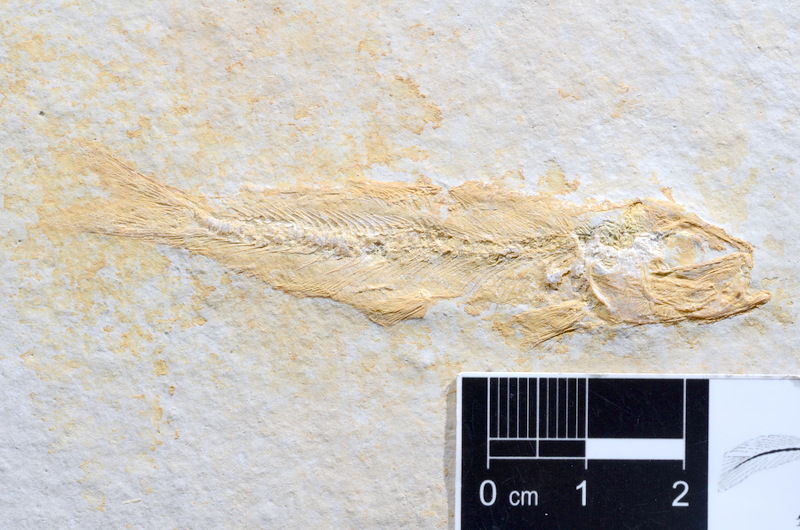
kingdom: Animalia
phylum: Chordata
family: Ascalaboidae
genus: Tharsis
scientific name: Tharsis dubius
